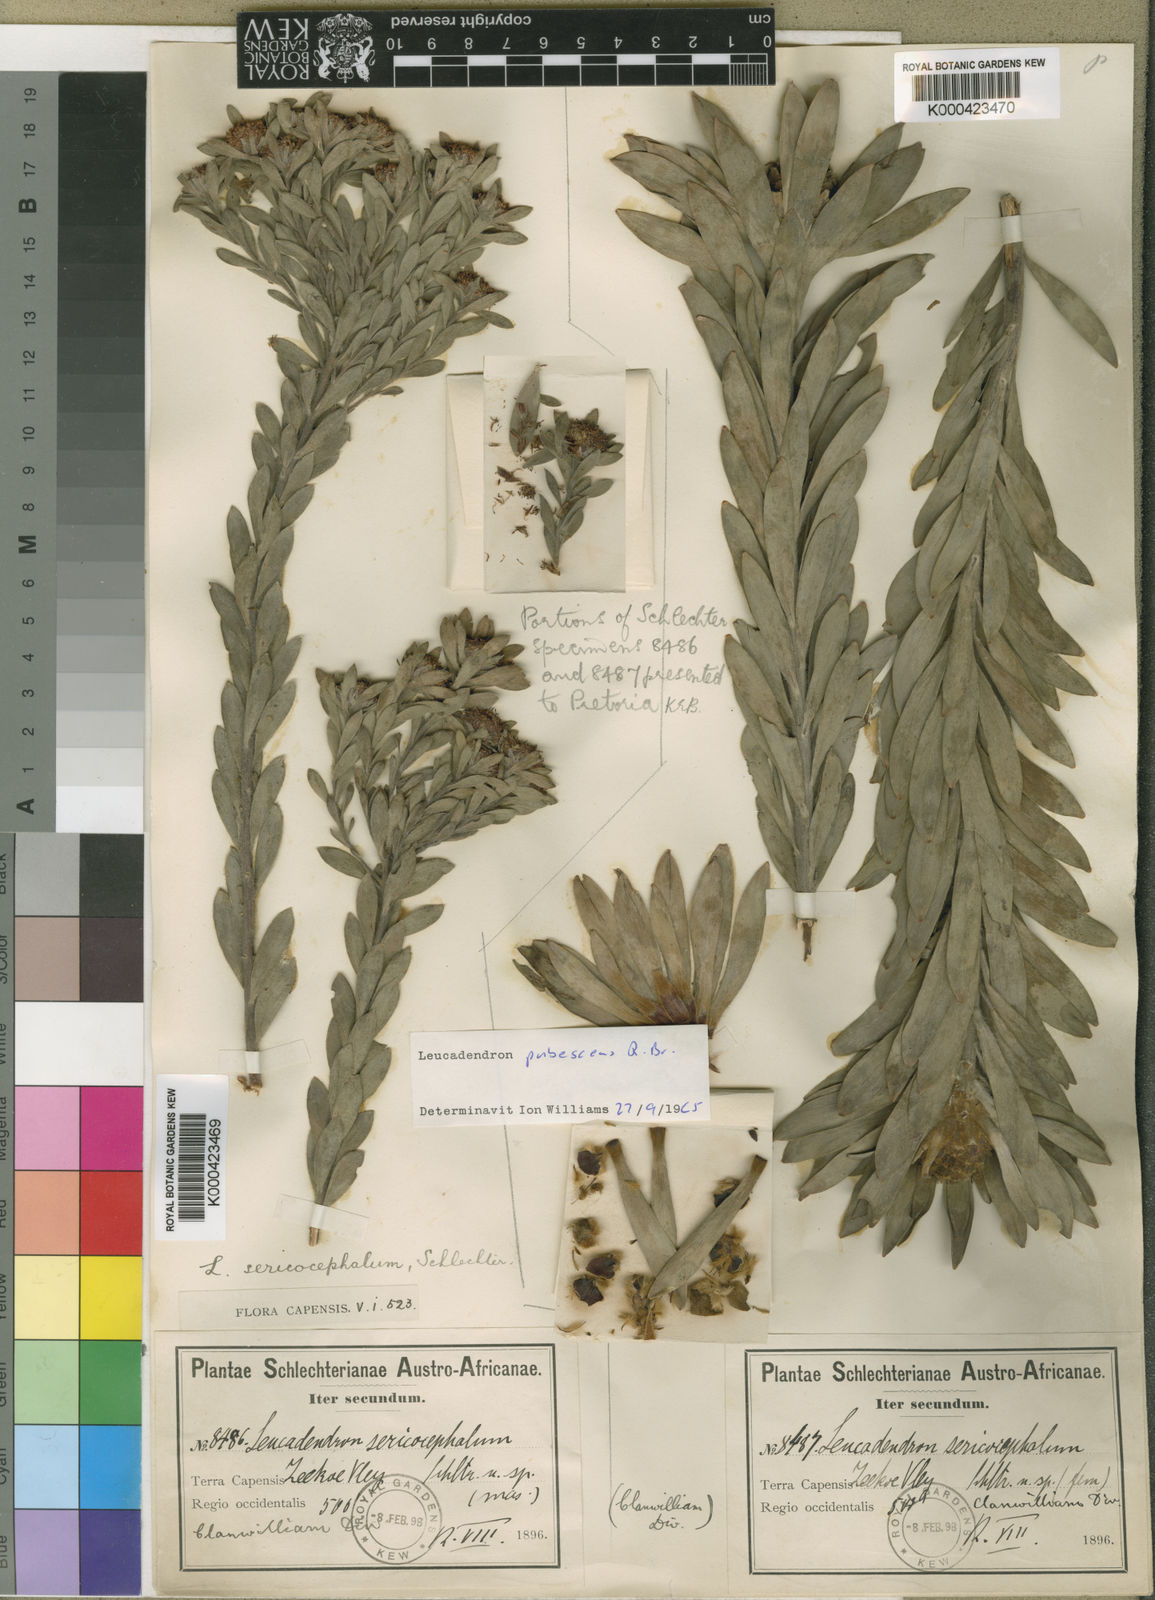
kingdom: Plantae
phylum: Tracheophyta
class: Magnoliopsida
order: Proteales
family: Proteaceae
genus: Leucadendron
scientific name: Leucadendron pubescens
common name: Grey conebush
